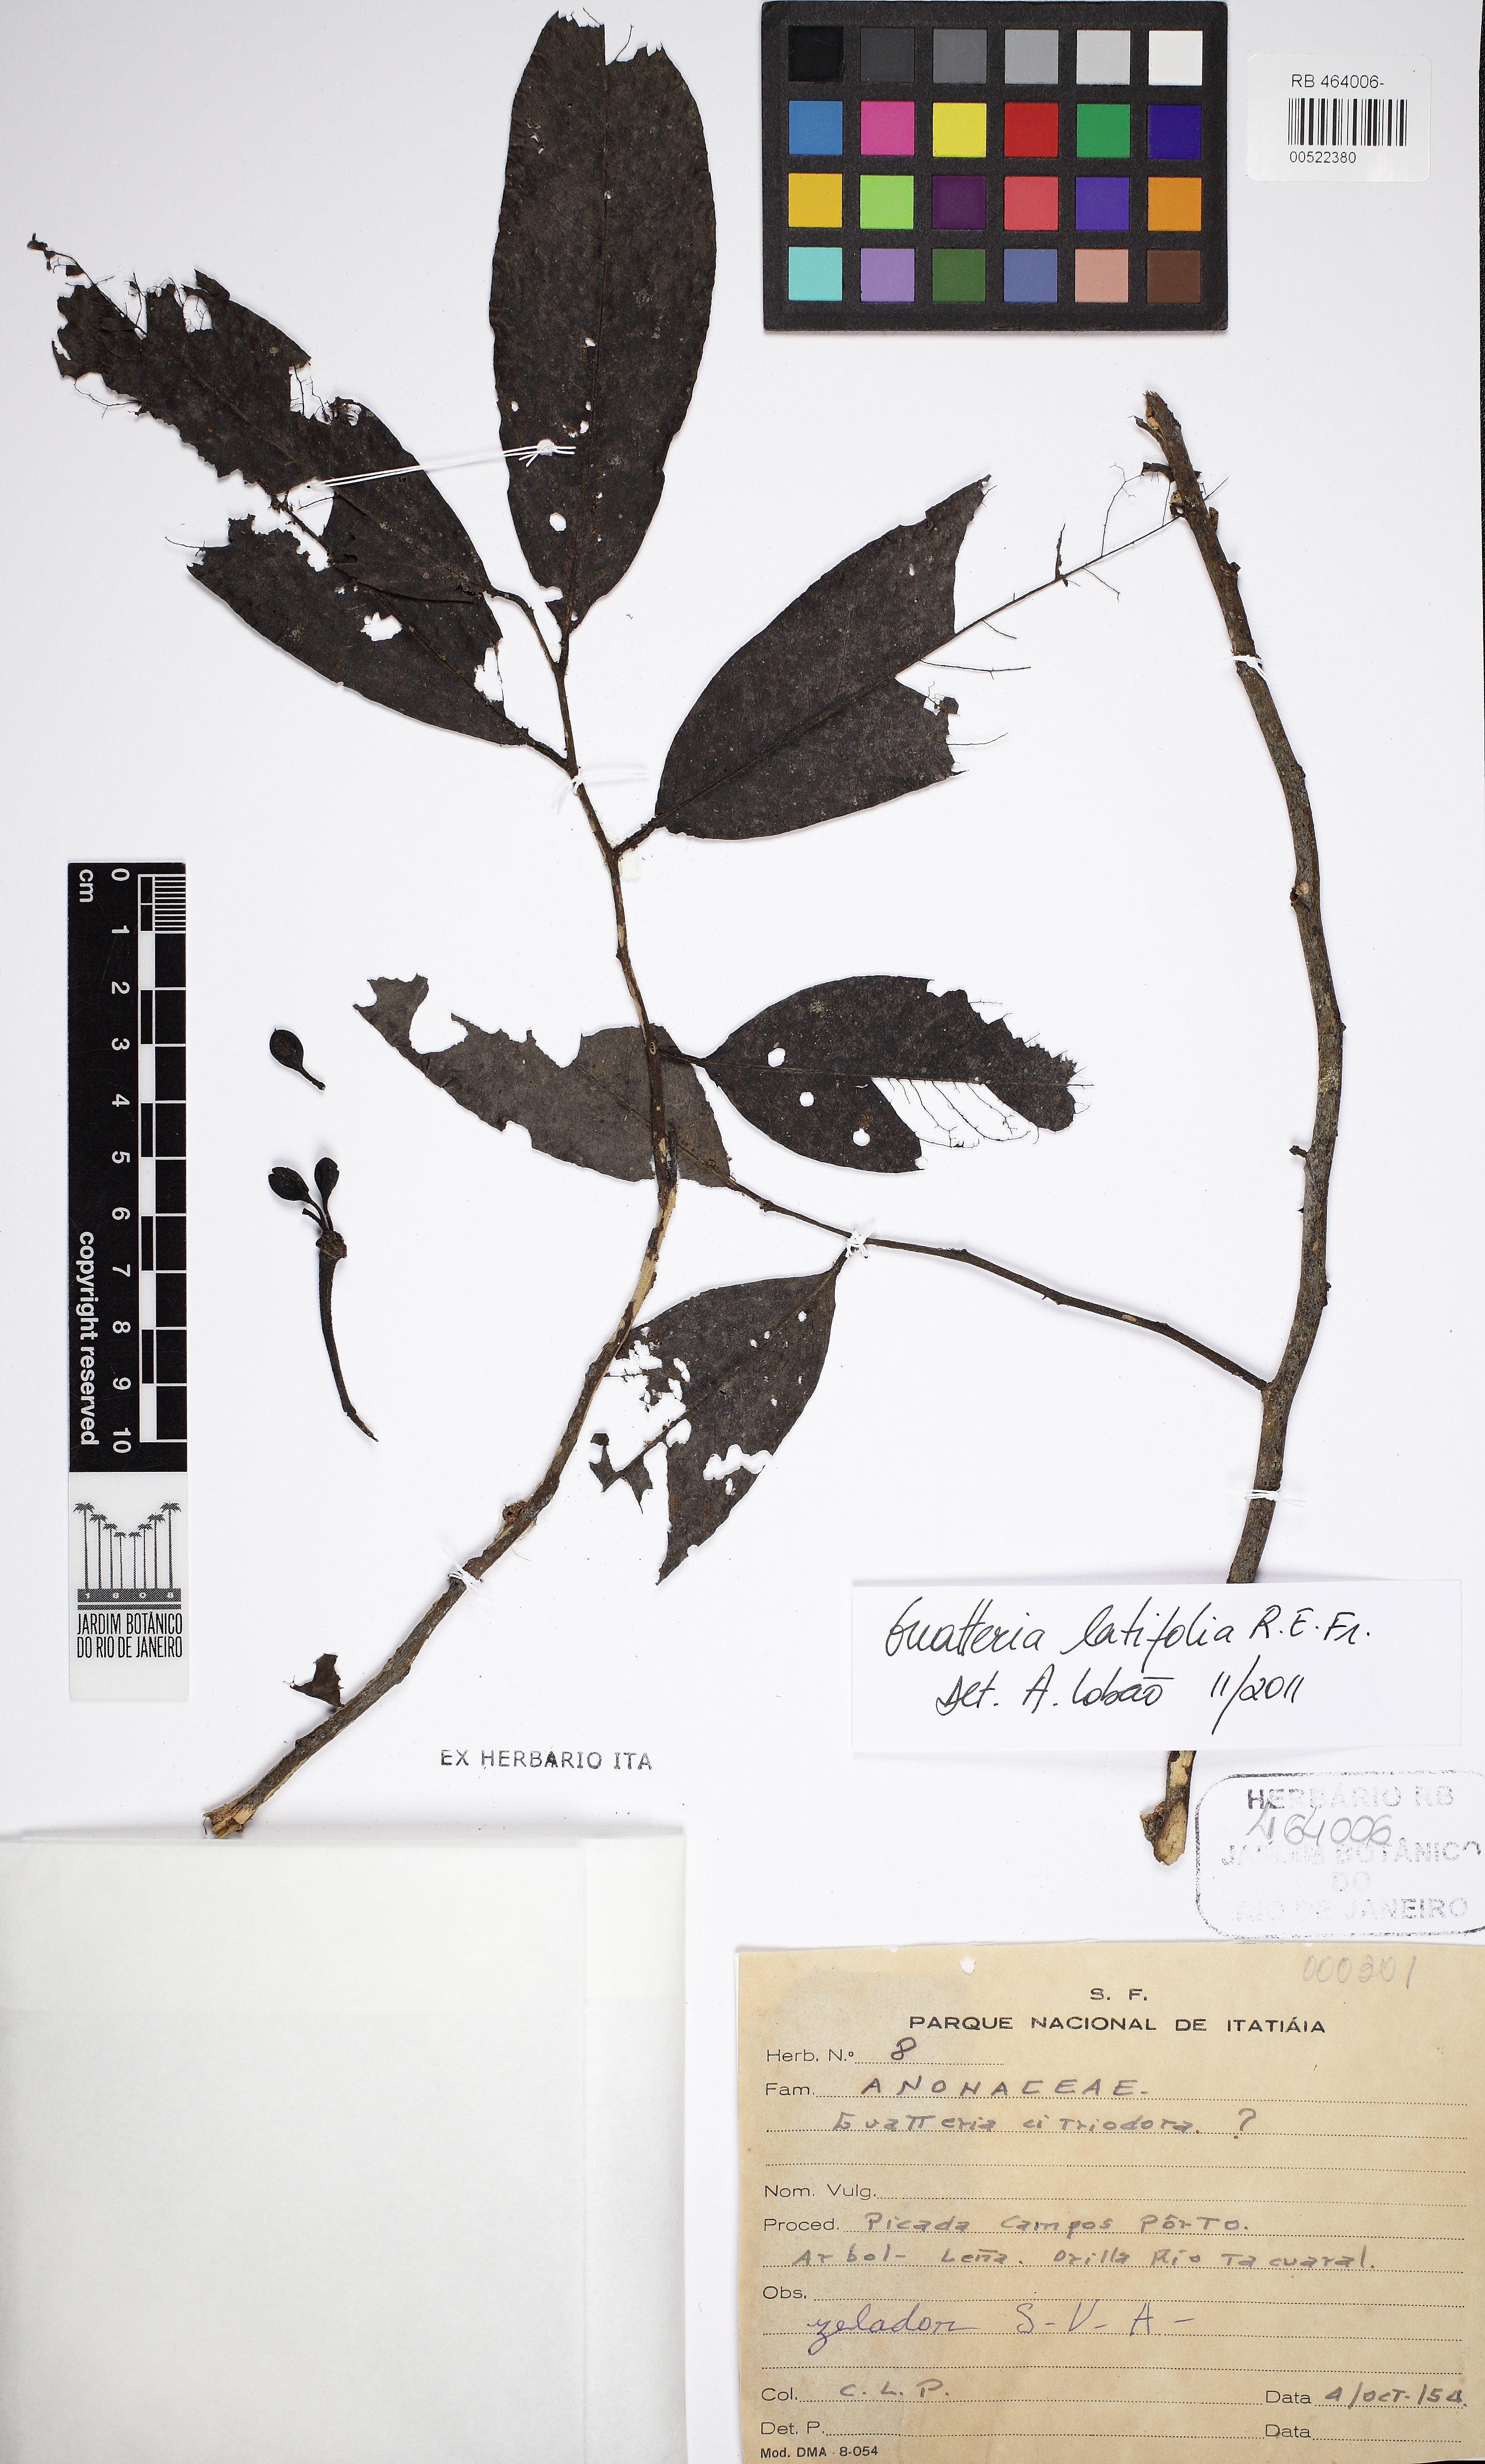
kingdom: Plantae
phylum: Tracheophyta
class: Magnoliopsida
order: Magnoliales
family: Annonaceae
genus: Guatteria
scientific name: Guatteria latifolia
